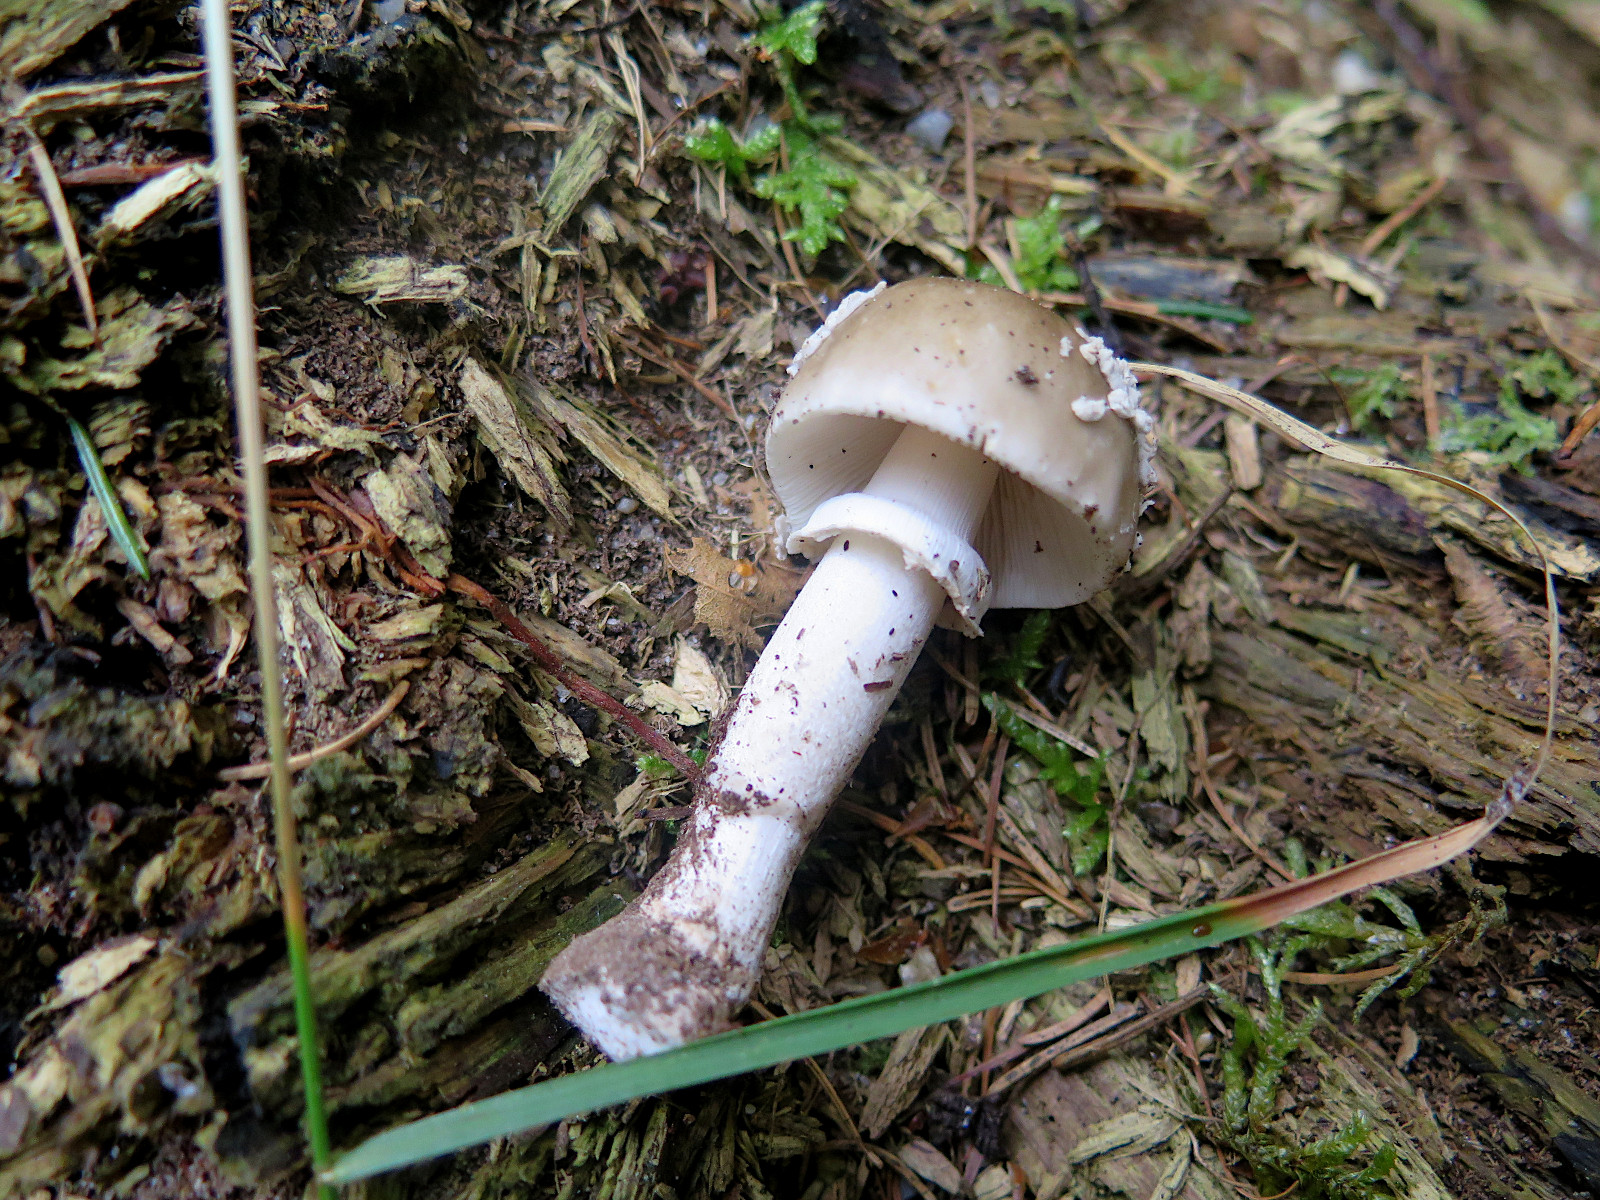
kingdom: Fungi
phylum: Basidiomycota
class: Agaricomycetes
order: Agaricales
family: Amanitaceae
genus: Amanita
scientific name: Amanita
